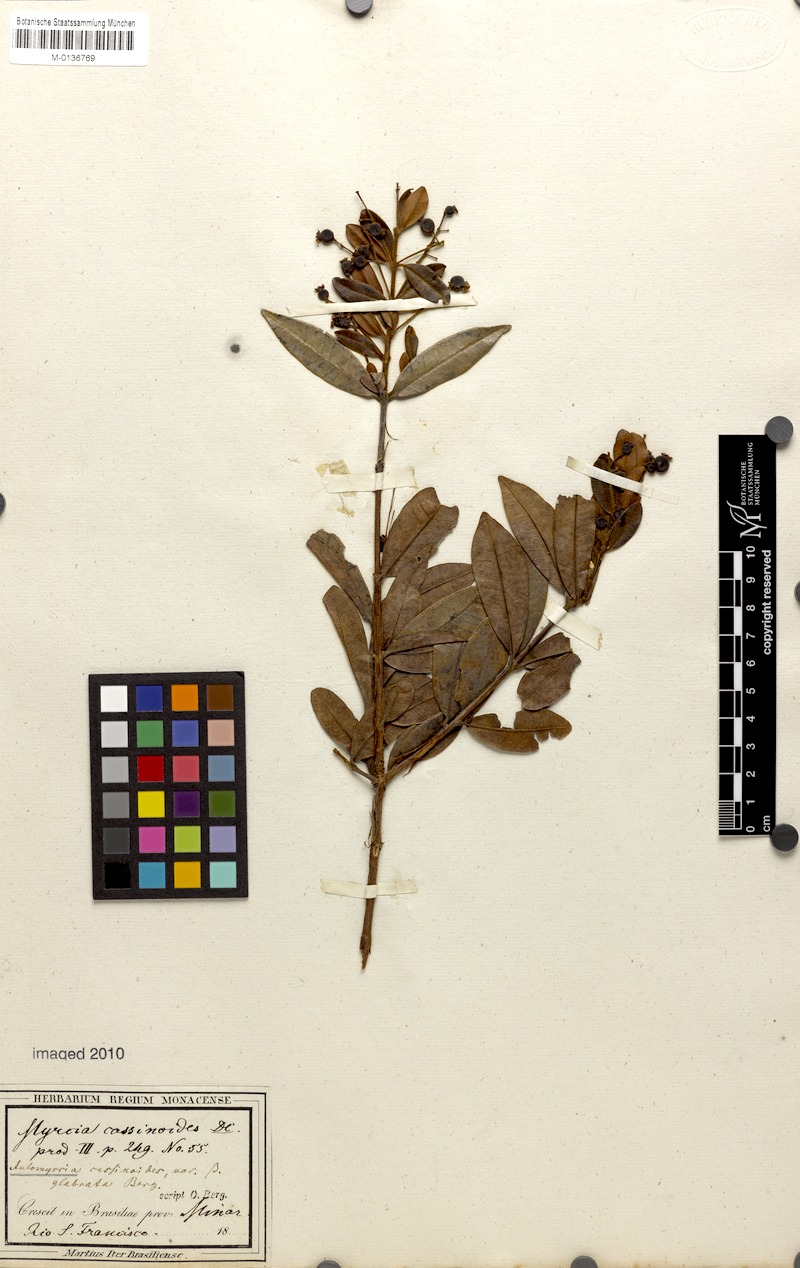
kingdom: Plantae
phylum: Tracheophyta
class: Magnoliopsida
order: Myrtales
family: Myrtaceae
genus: Myrcia
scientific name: Myrcia guianensis
